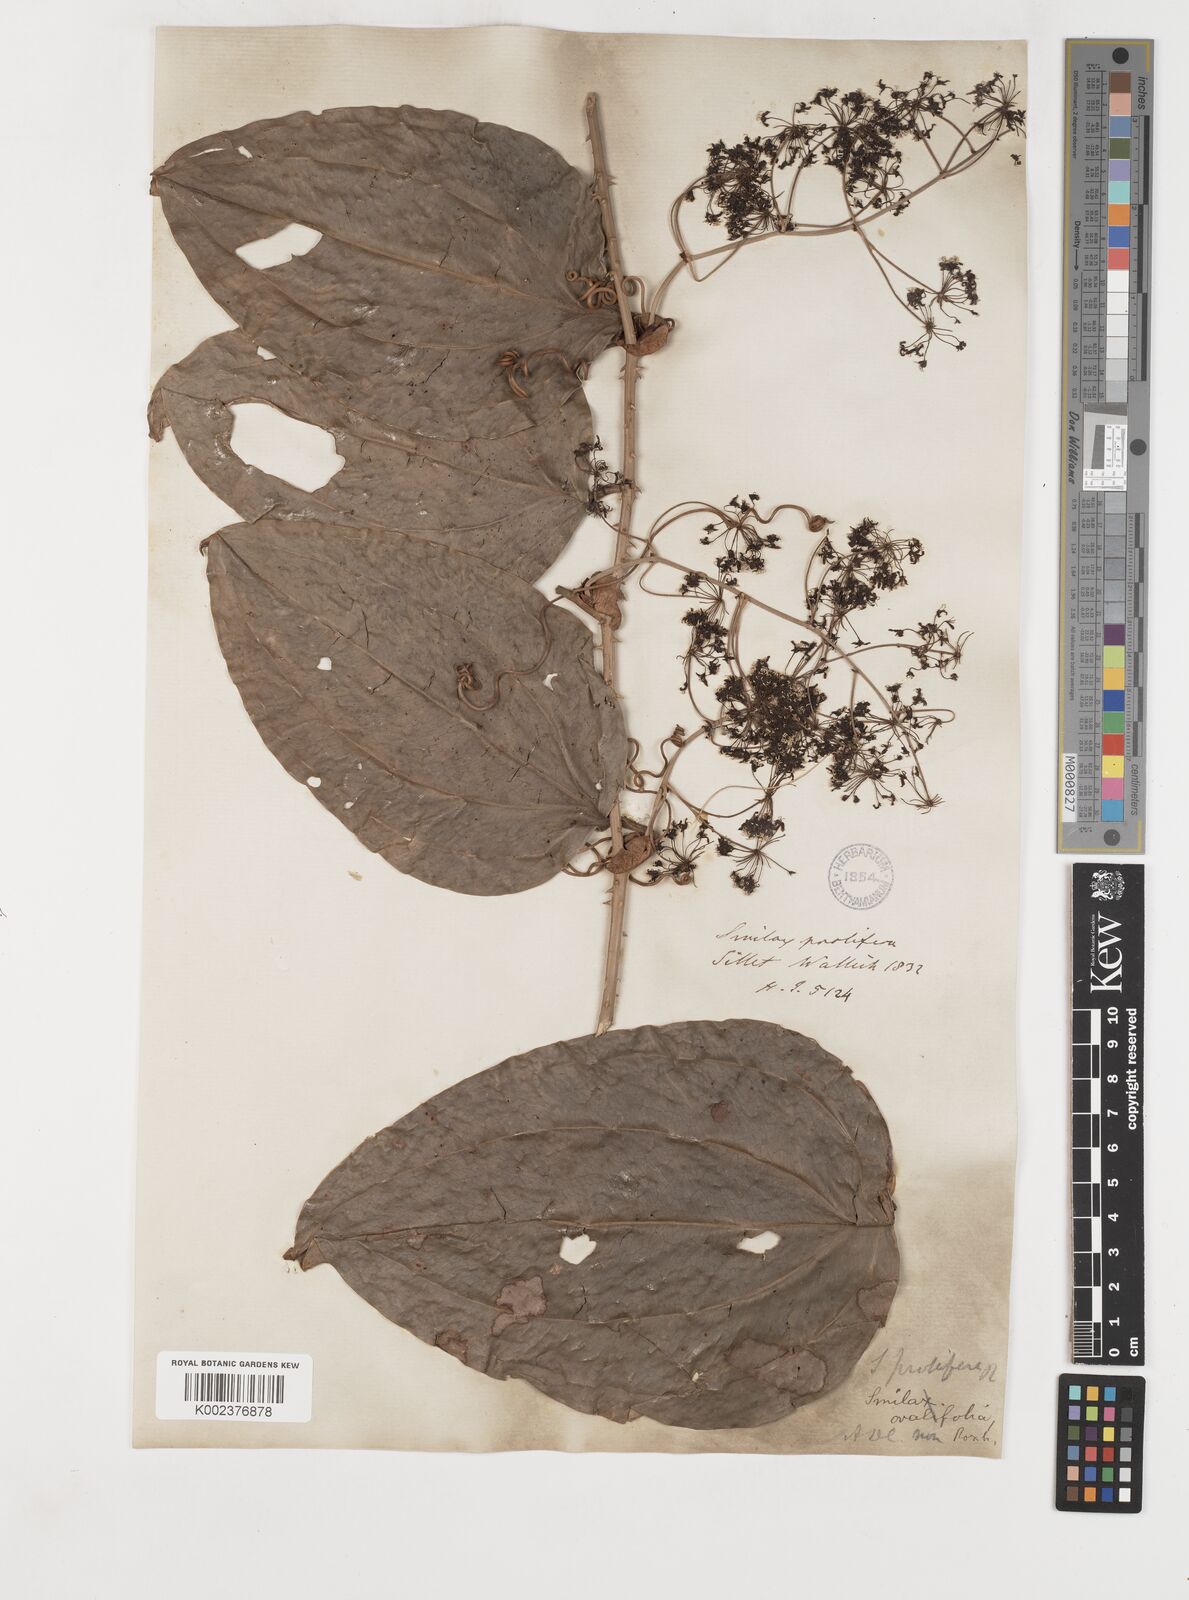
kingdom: Plantae
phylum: Tracheophyta
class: Liliopsida
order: Liliales
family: Smilacaceae
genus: Smilax
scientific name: Smilax prolifera
